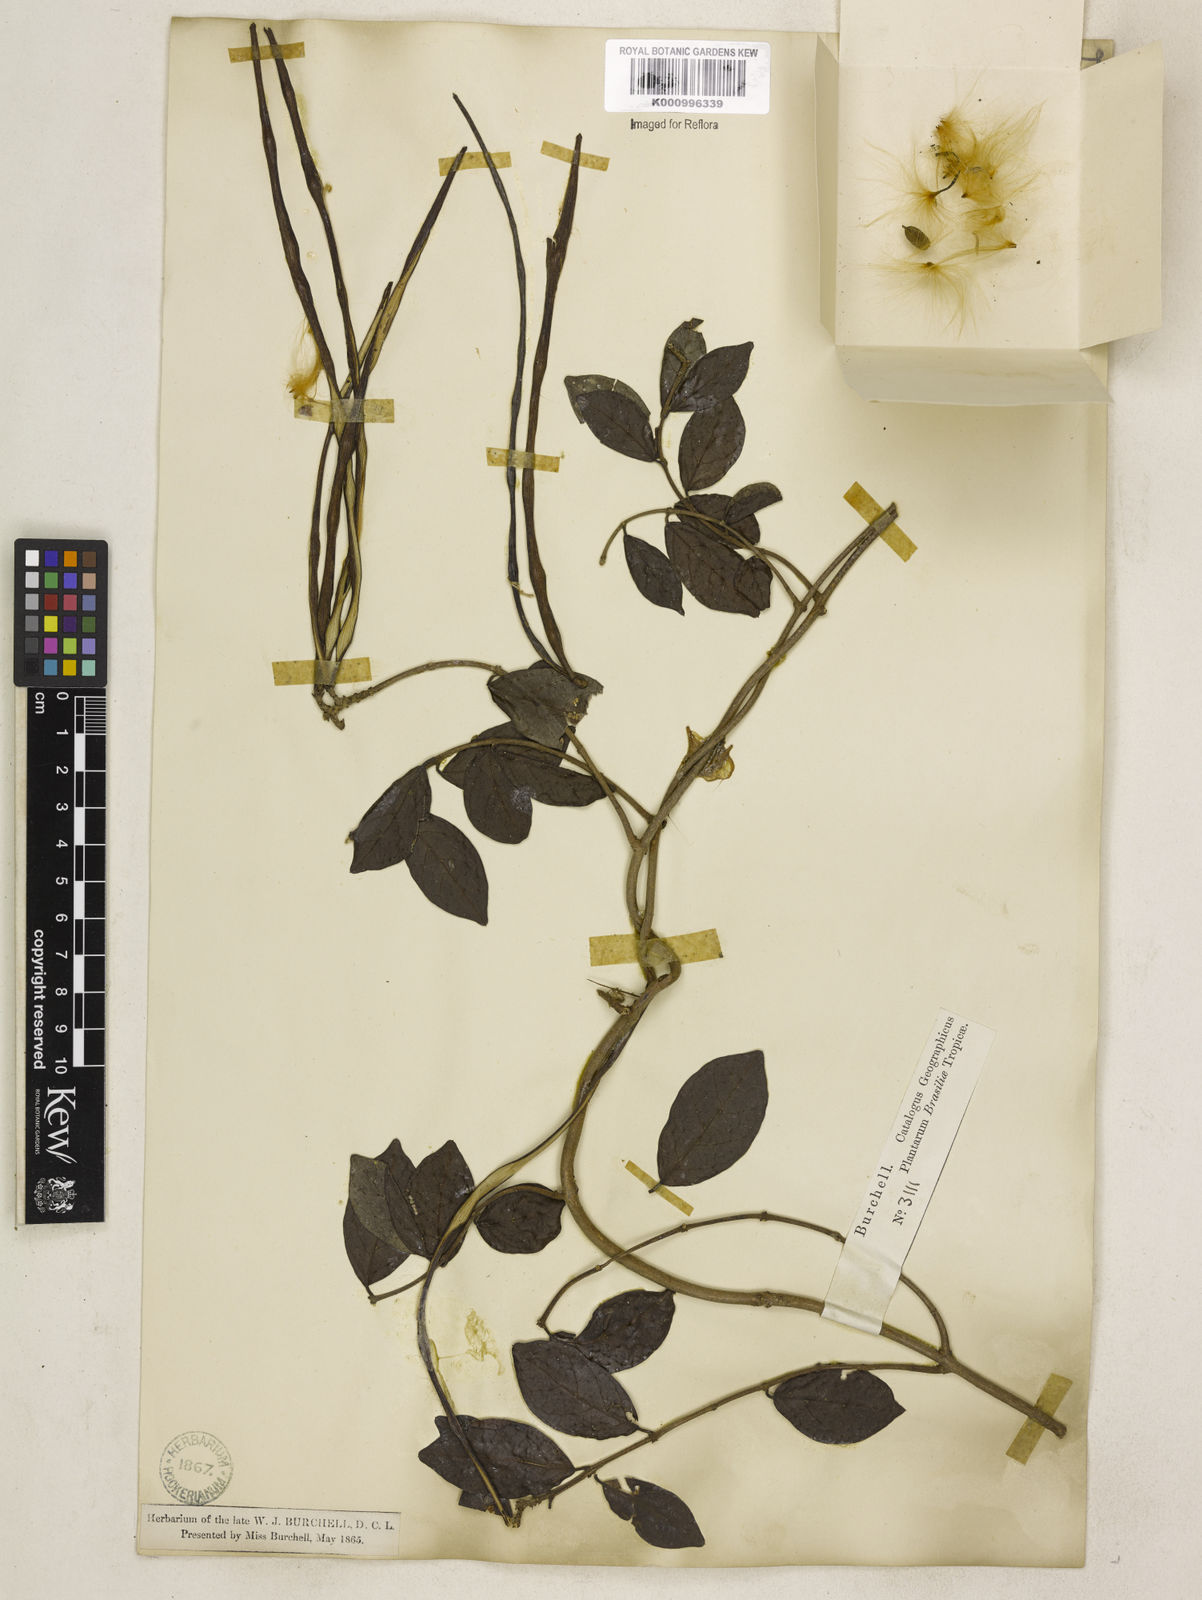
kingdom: Plantae
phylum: Tracheophyta
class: Magnoliopsida
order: Gentianales
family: Apocynaceae
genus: Forsteronia
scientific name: Forsteronia leptocarpa
